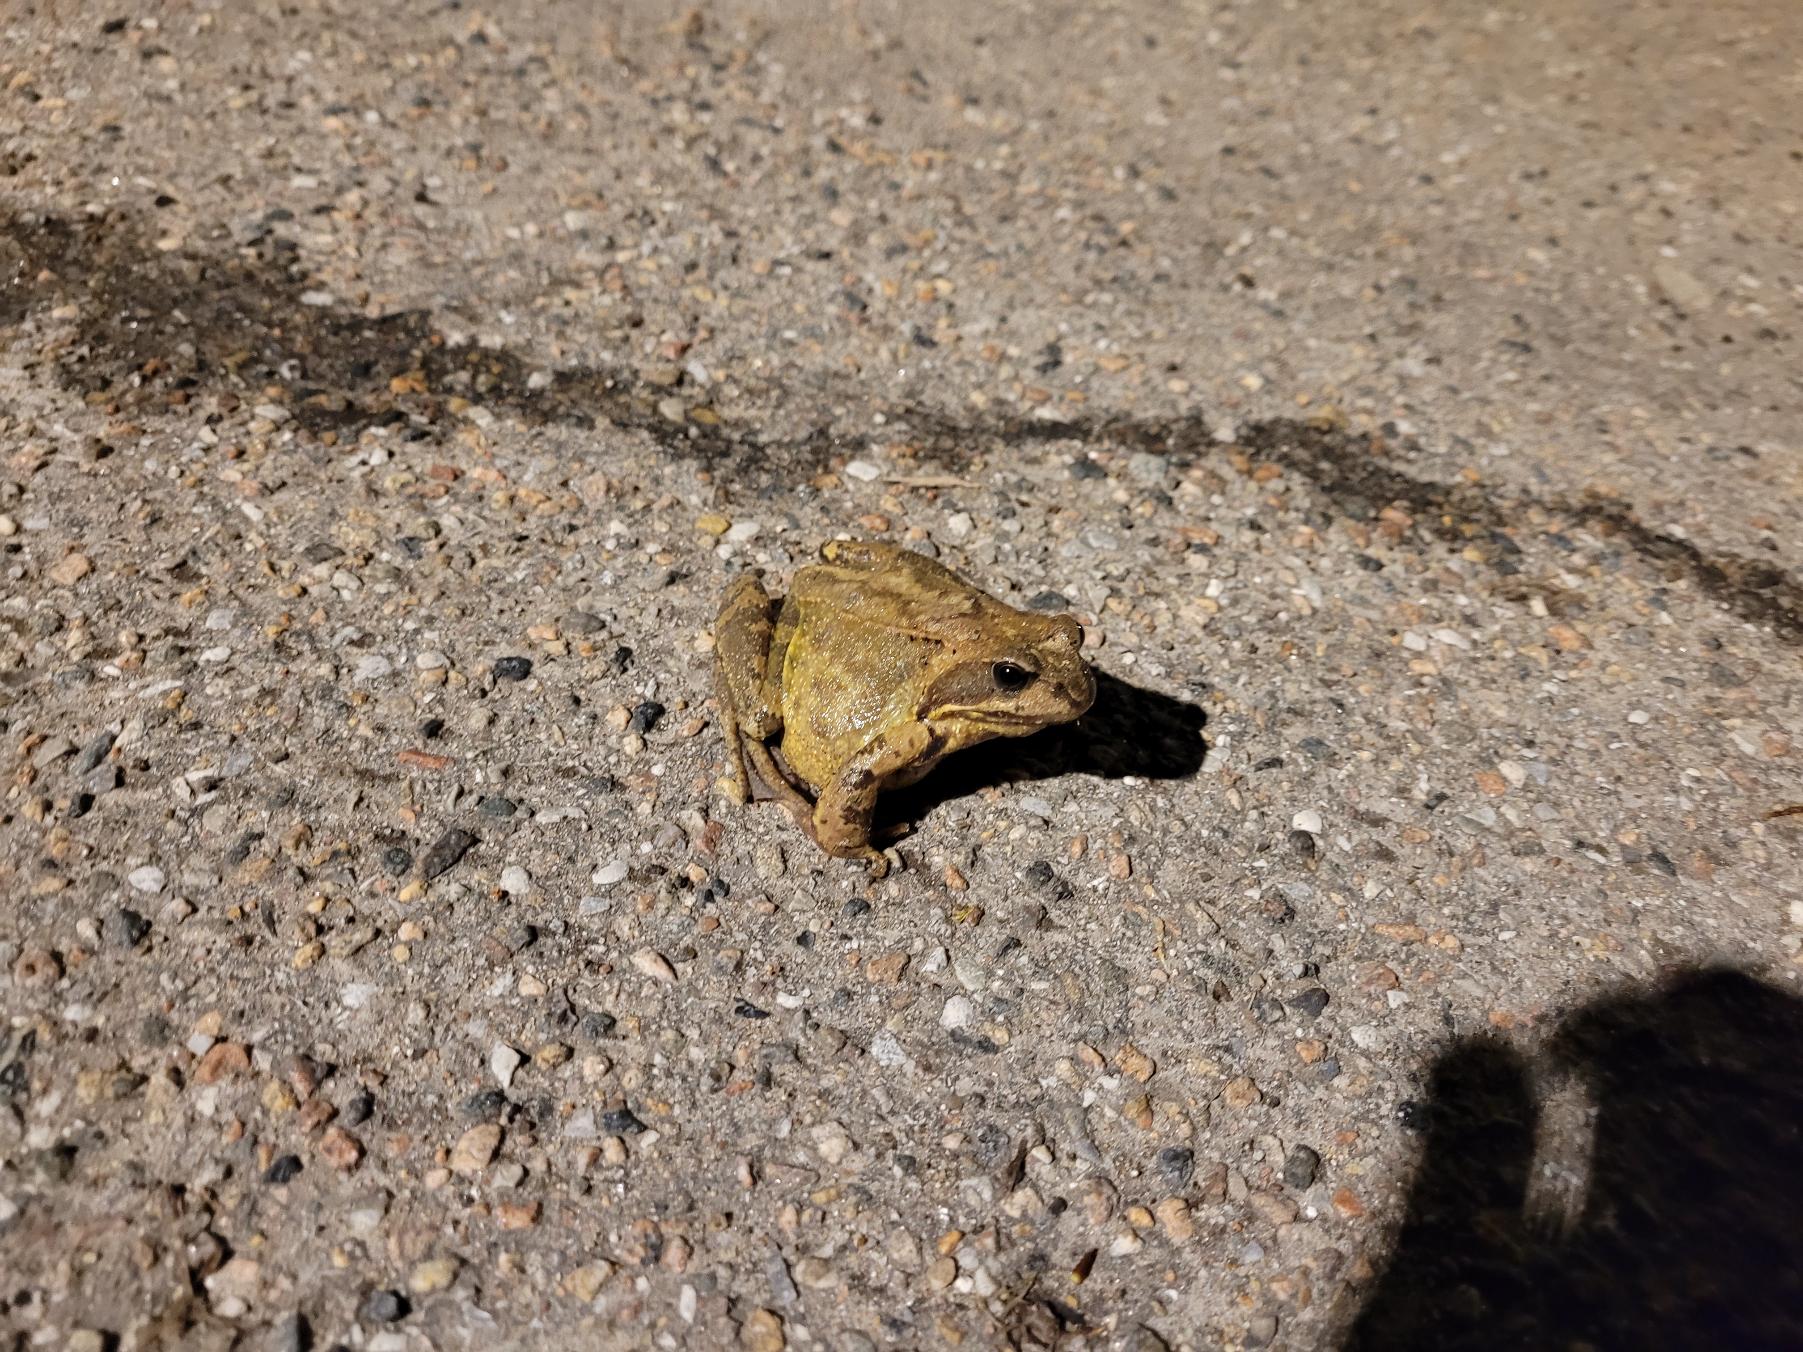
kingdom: Animalia
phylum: Chordata
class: Amphibia
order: Anura
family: Ranidae
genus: Rana
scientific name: Rana temporaria
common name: Butsnudet frø
